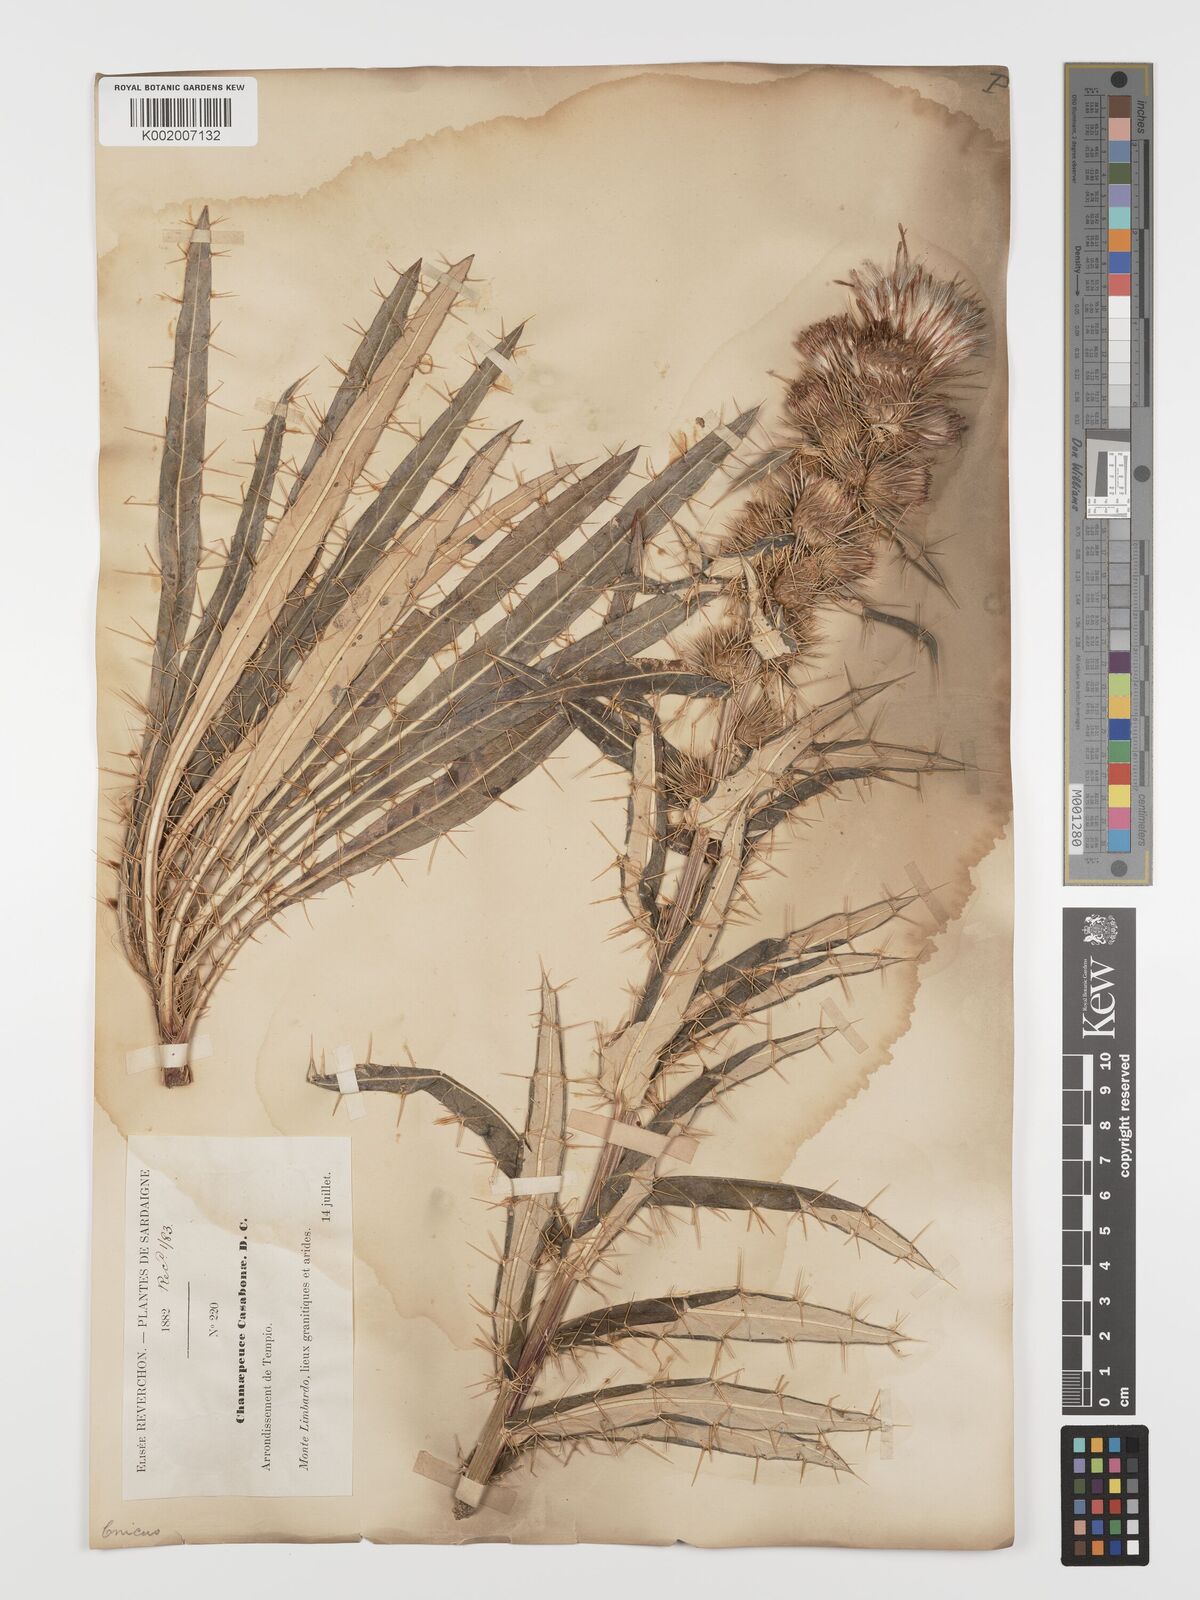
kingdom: Plantae
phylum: Tracheophyta
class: Magnoliopsida
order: Asterales
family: Asteraceae
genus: Ptilostemon
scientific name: Ptilostemon casabonae
